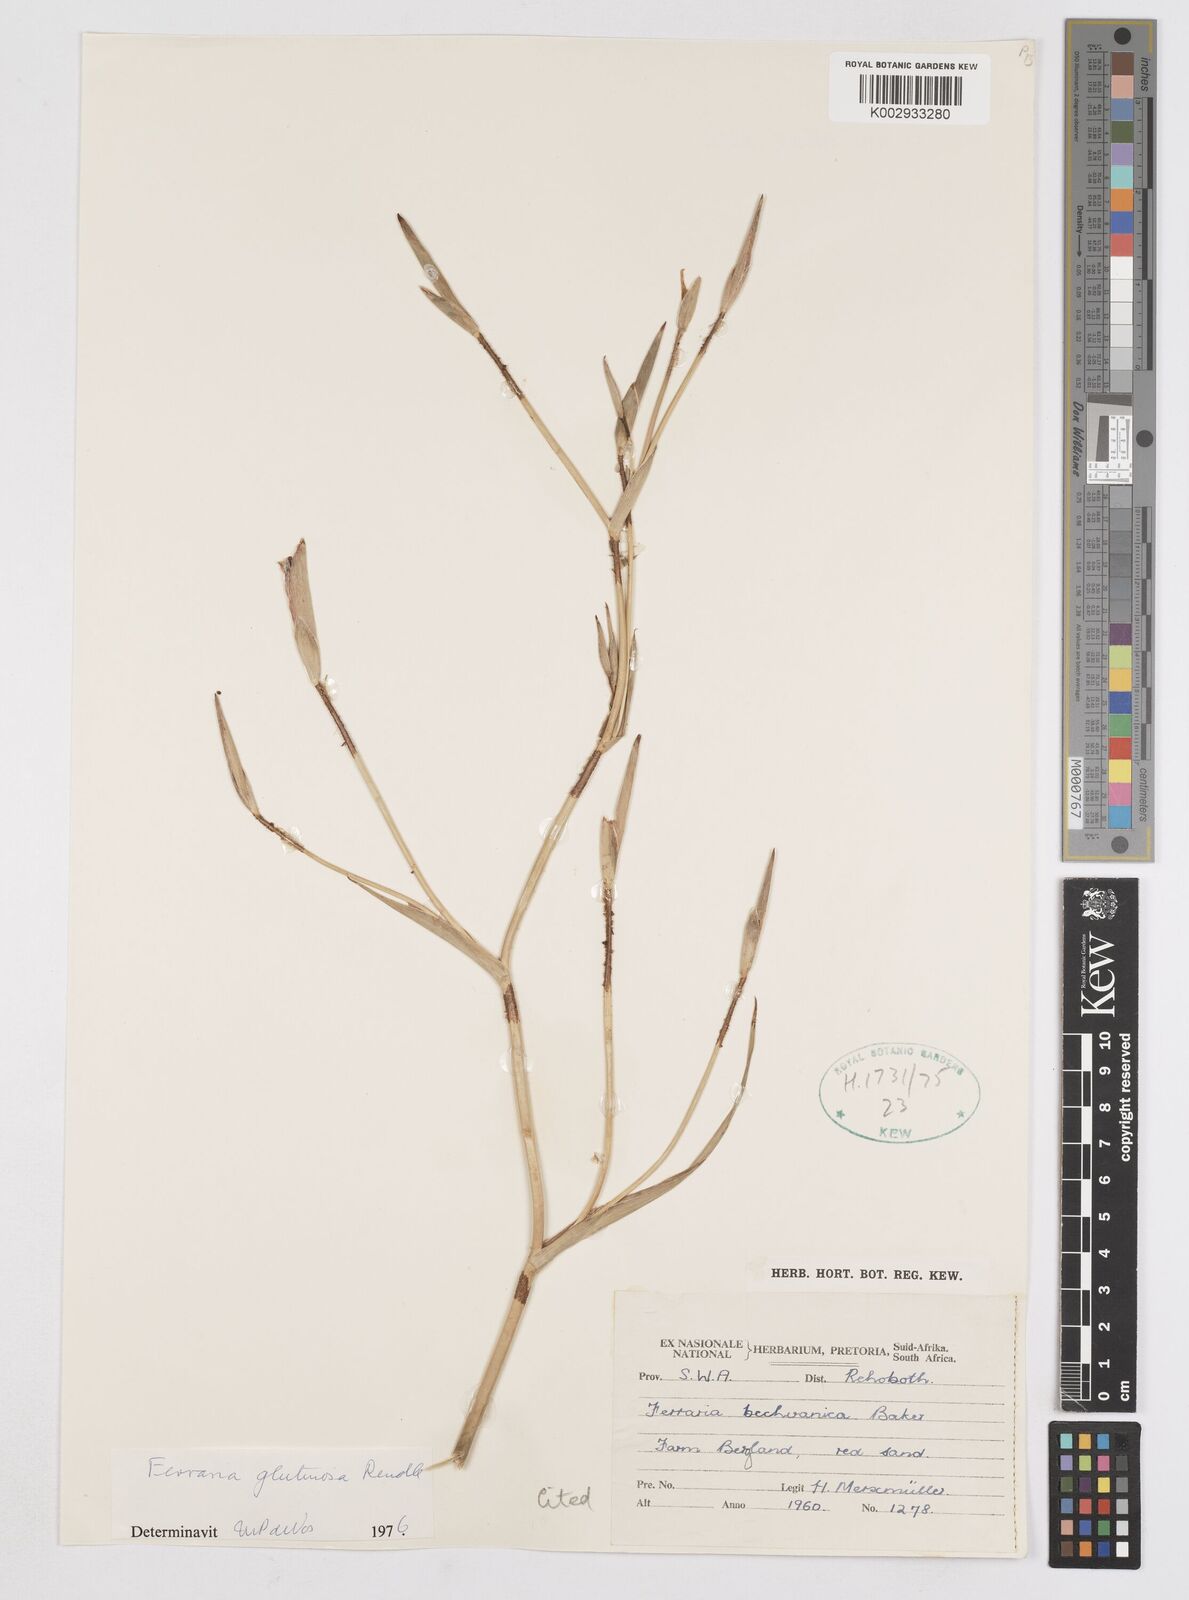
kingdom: Plantae
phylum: Tracheophyta
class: Liliopsida
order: Asparagales
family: Iridaceae
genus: Ferraria
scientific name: Ferraria glutinosa
